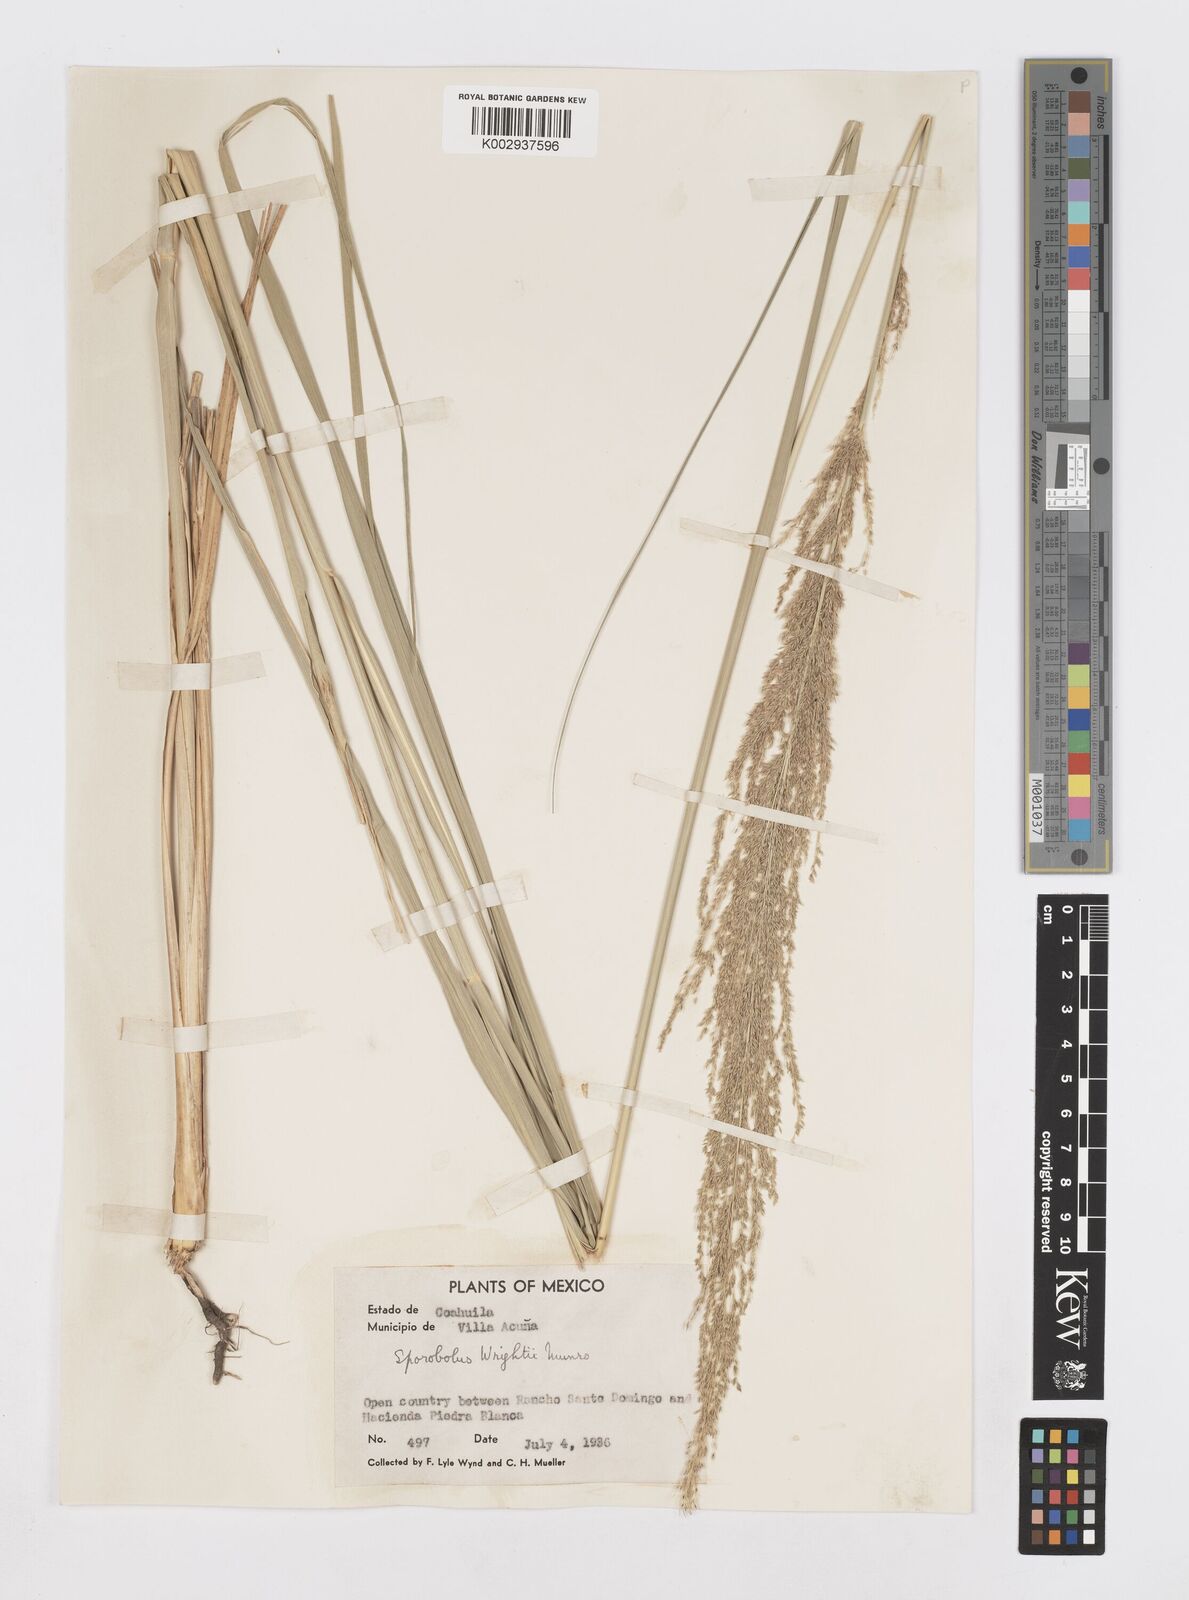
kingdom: Plantae
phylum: Tracheophyta
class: Liliopsida
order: Poales
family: Poaceae
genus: Sporobolus
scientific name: Sporobolus wrightii
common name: Big alkali sacaton
